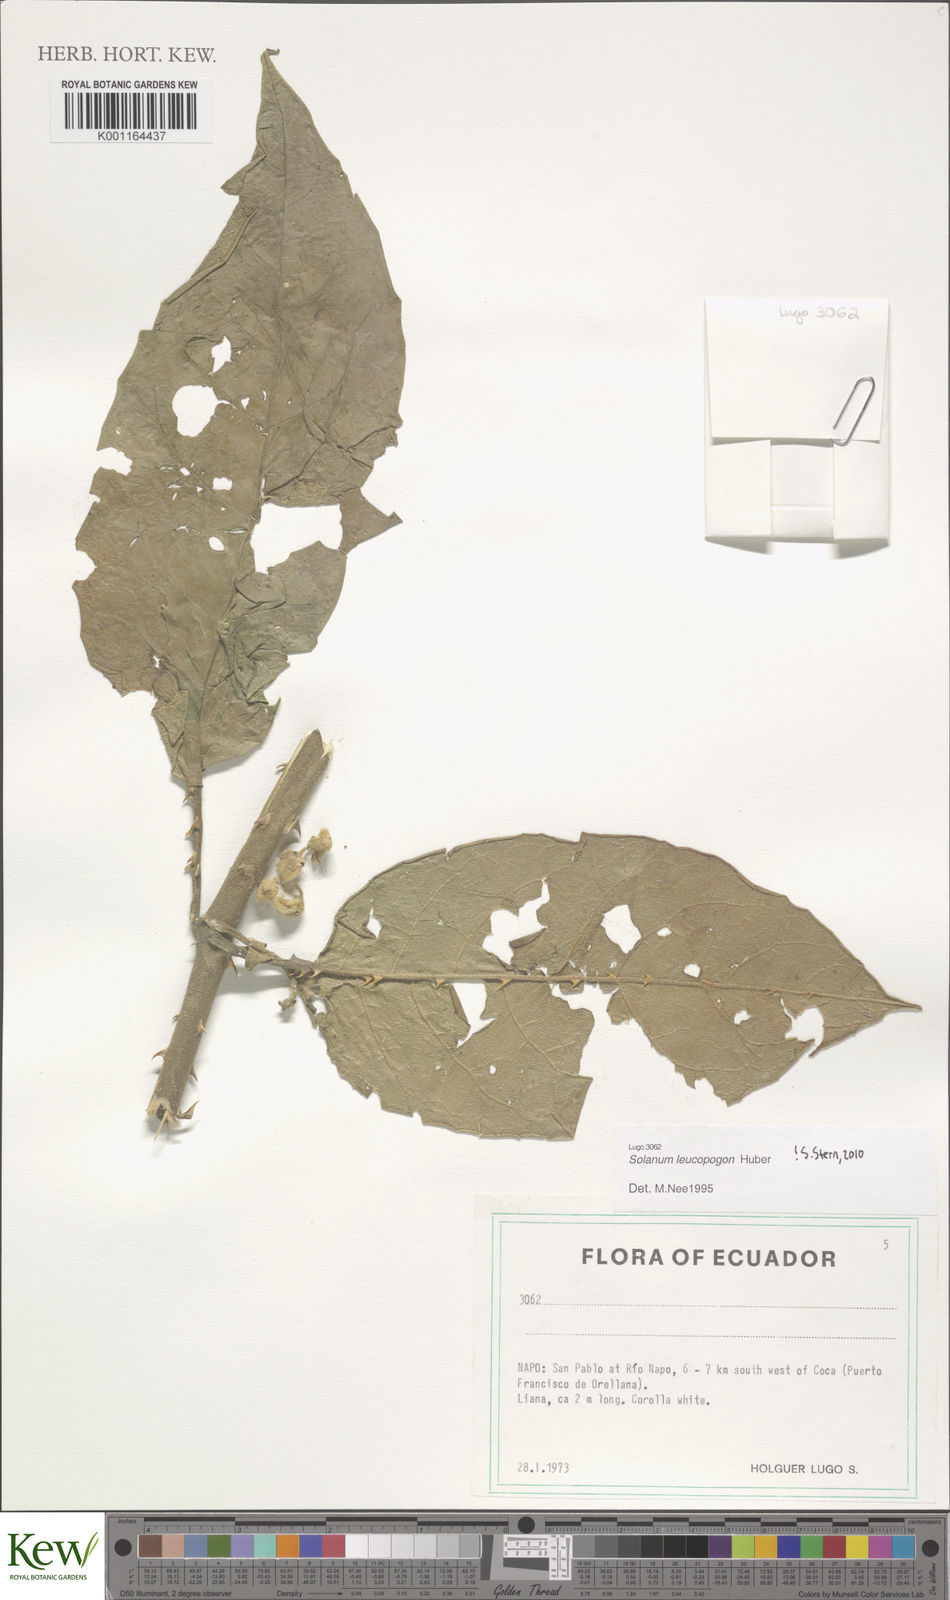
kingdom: Plantae
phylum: Tracheophyta
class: Magnoliopsida
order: Solanales
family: Solanaceae
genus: Solanum
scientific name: Solanum leucopogon
